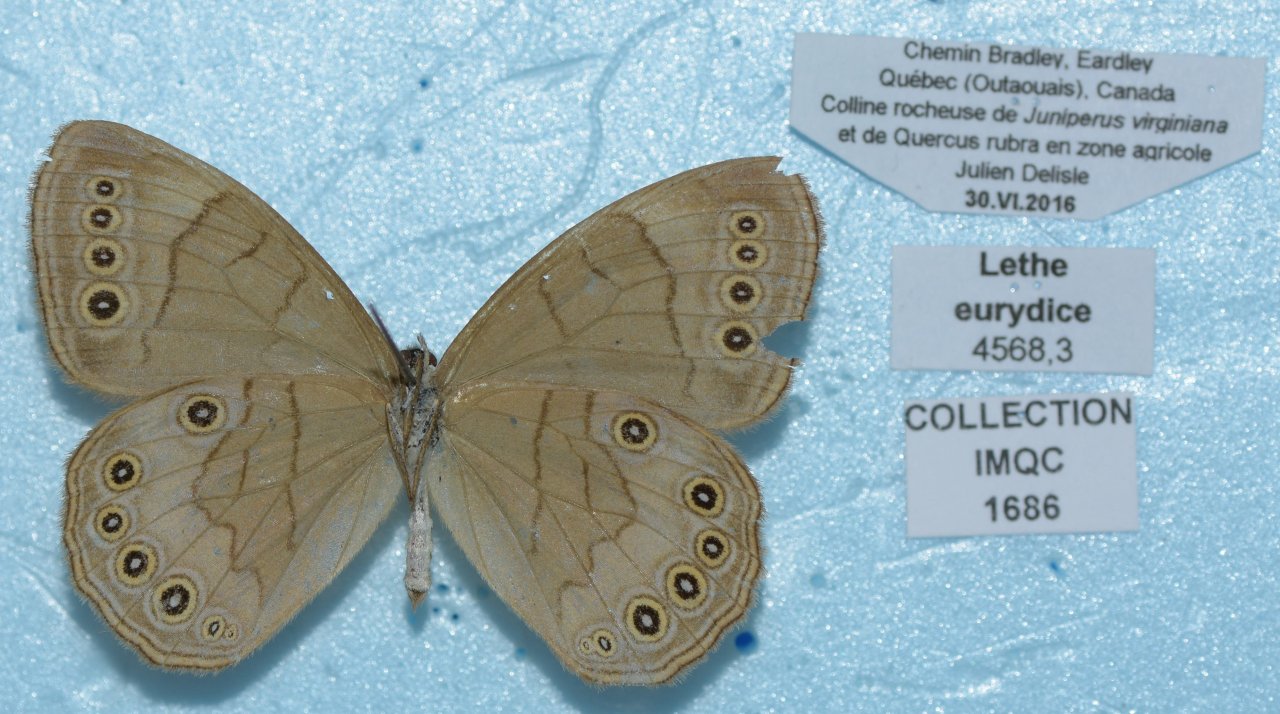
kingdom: Animalia
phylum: Arthropoda
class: Insecta
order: Lepidoptera
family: Nymphalidae
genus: Lethe
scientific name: Lethe eurydice
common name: Appalachian Eyed Brown
